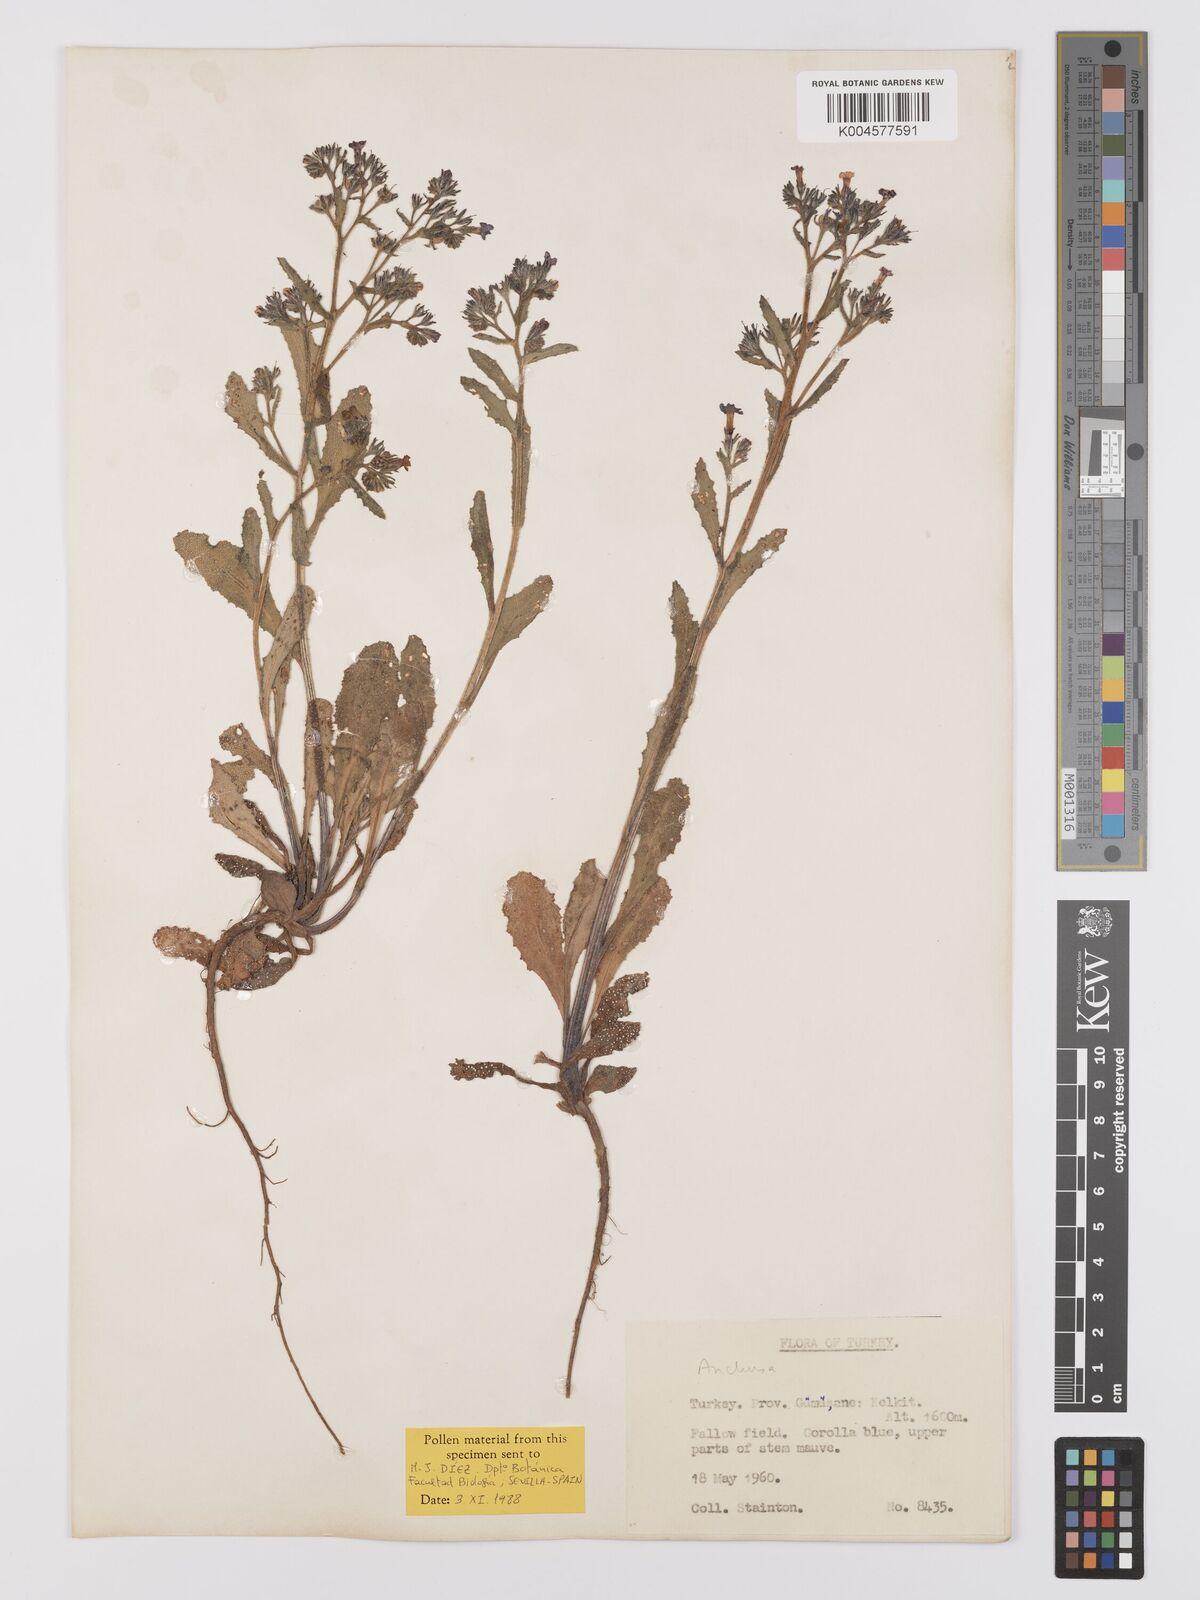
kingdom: Plantae
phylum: Tracheophyta
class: Magnoliopsida
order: Boraginales
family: Boraginaceae
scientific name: Boraginaceae
